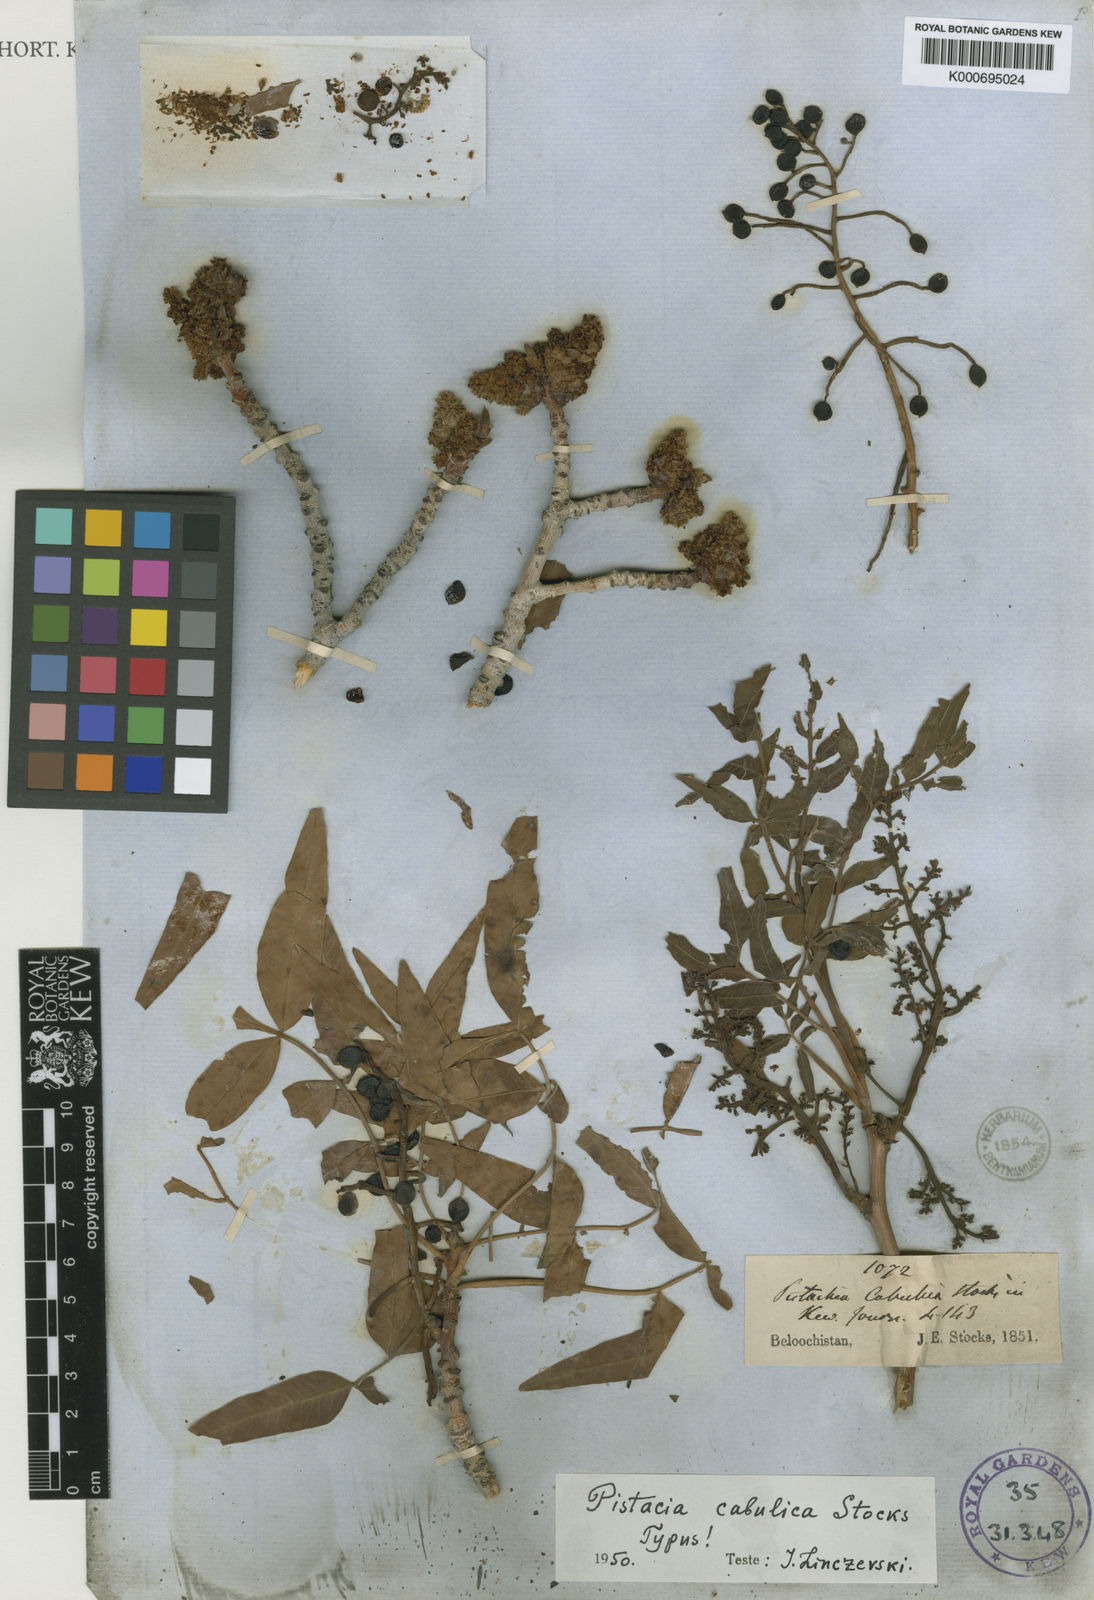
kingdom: Plantae
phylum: Tracheophyta
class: Magnoliopsida
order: Asterales
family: Asteraceae
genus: Praxelis
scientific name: Praxelis clematidea
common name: Praxelis
